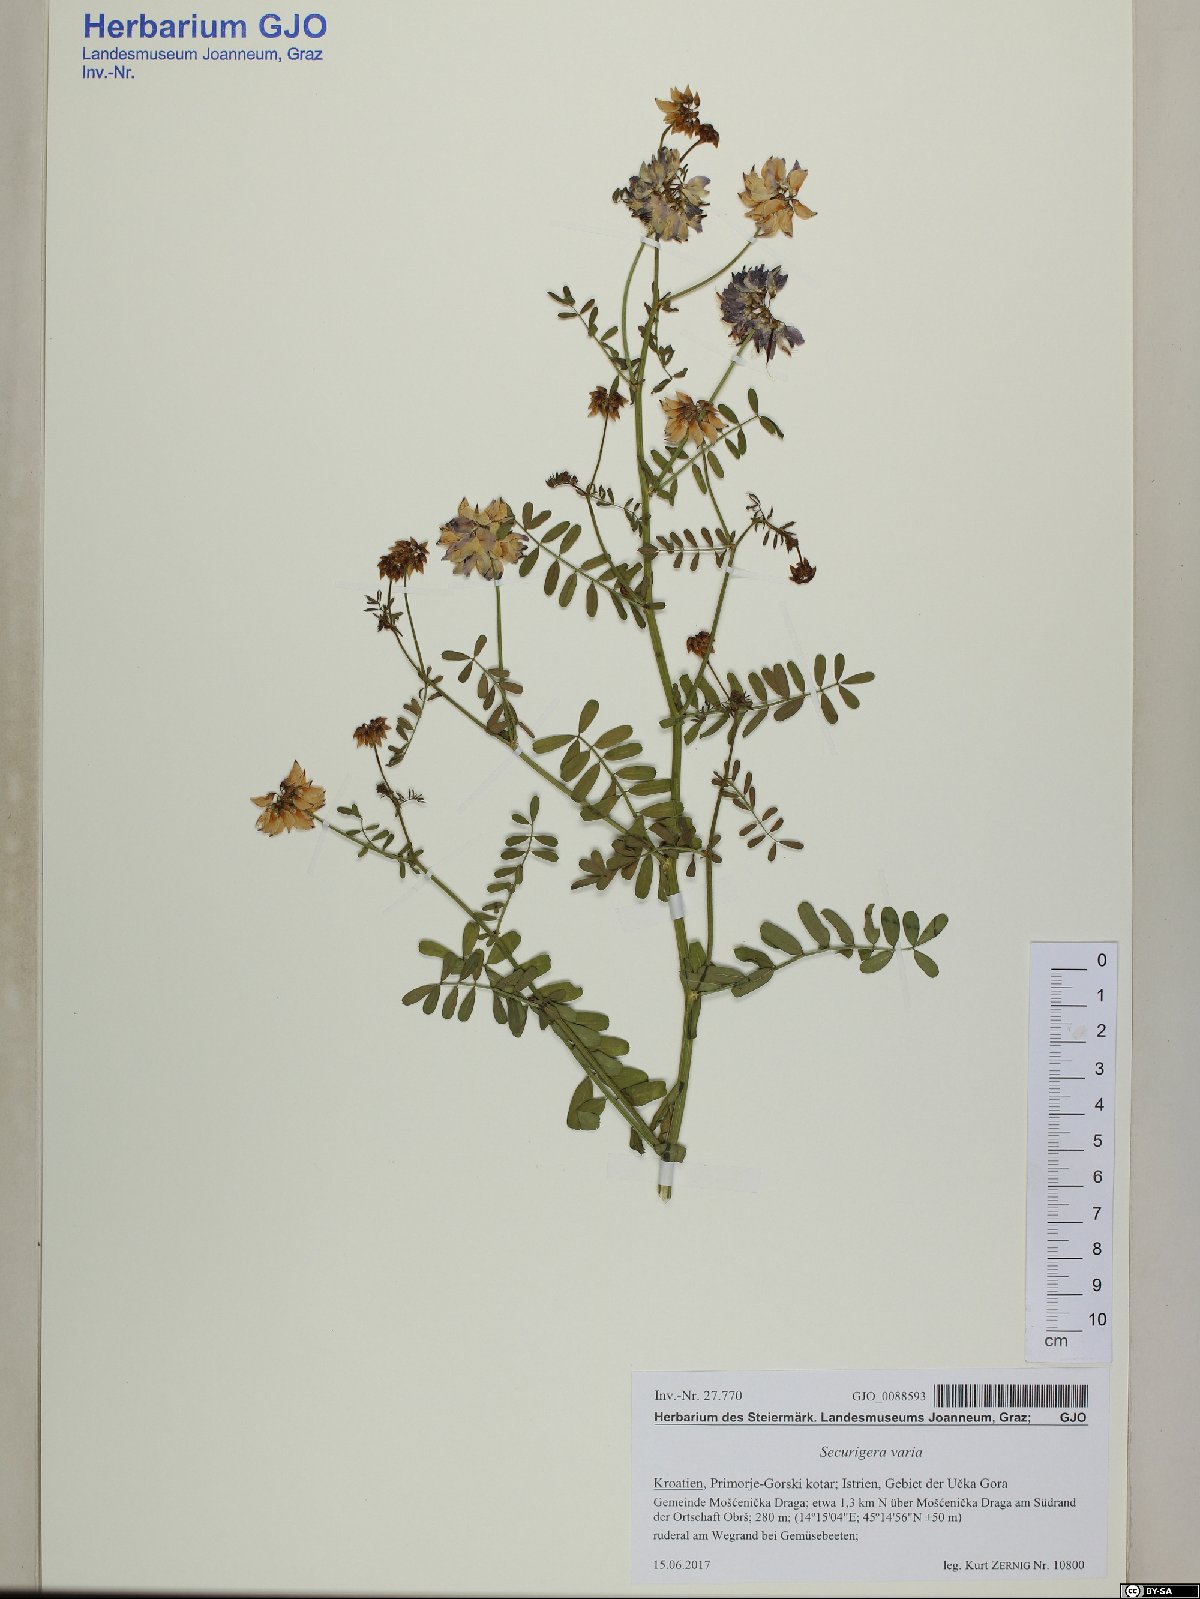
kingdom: Plantae
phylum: Tracheophyta
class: Magnoliopsida
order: Fabales
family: Fabaceae
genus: Coronilla
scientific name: Coronilla varia
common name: Crownvetch
